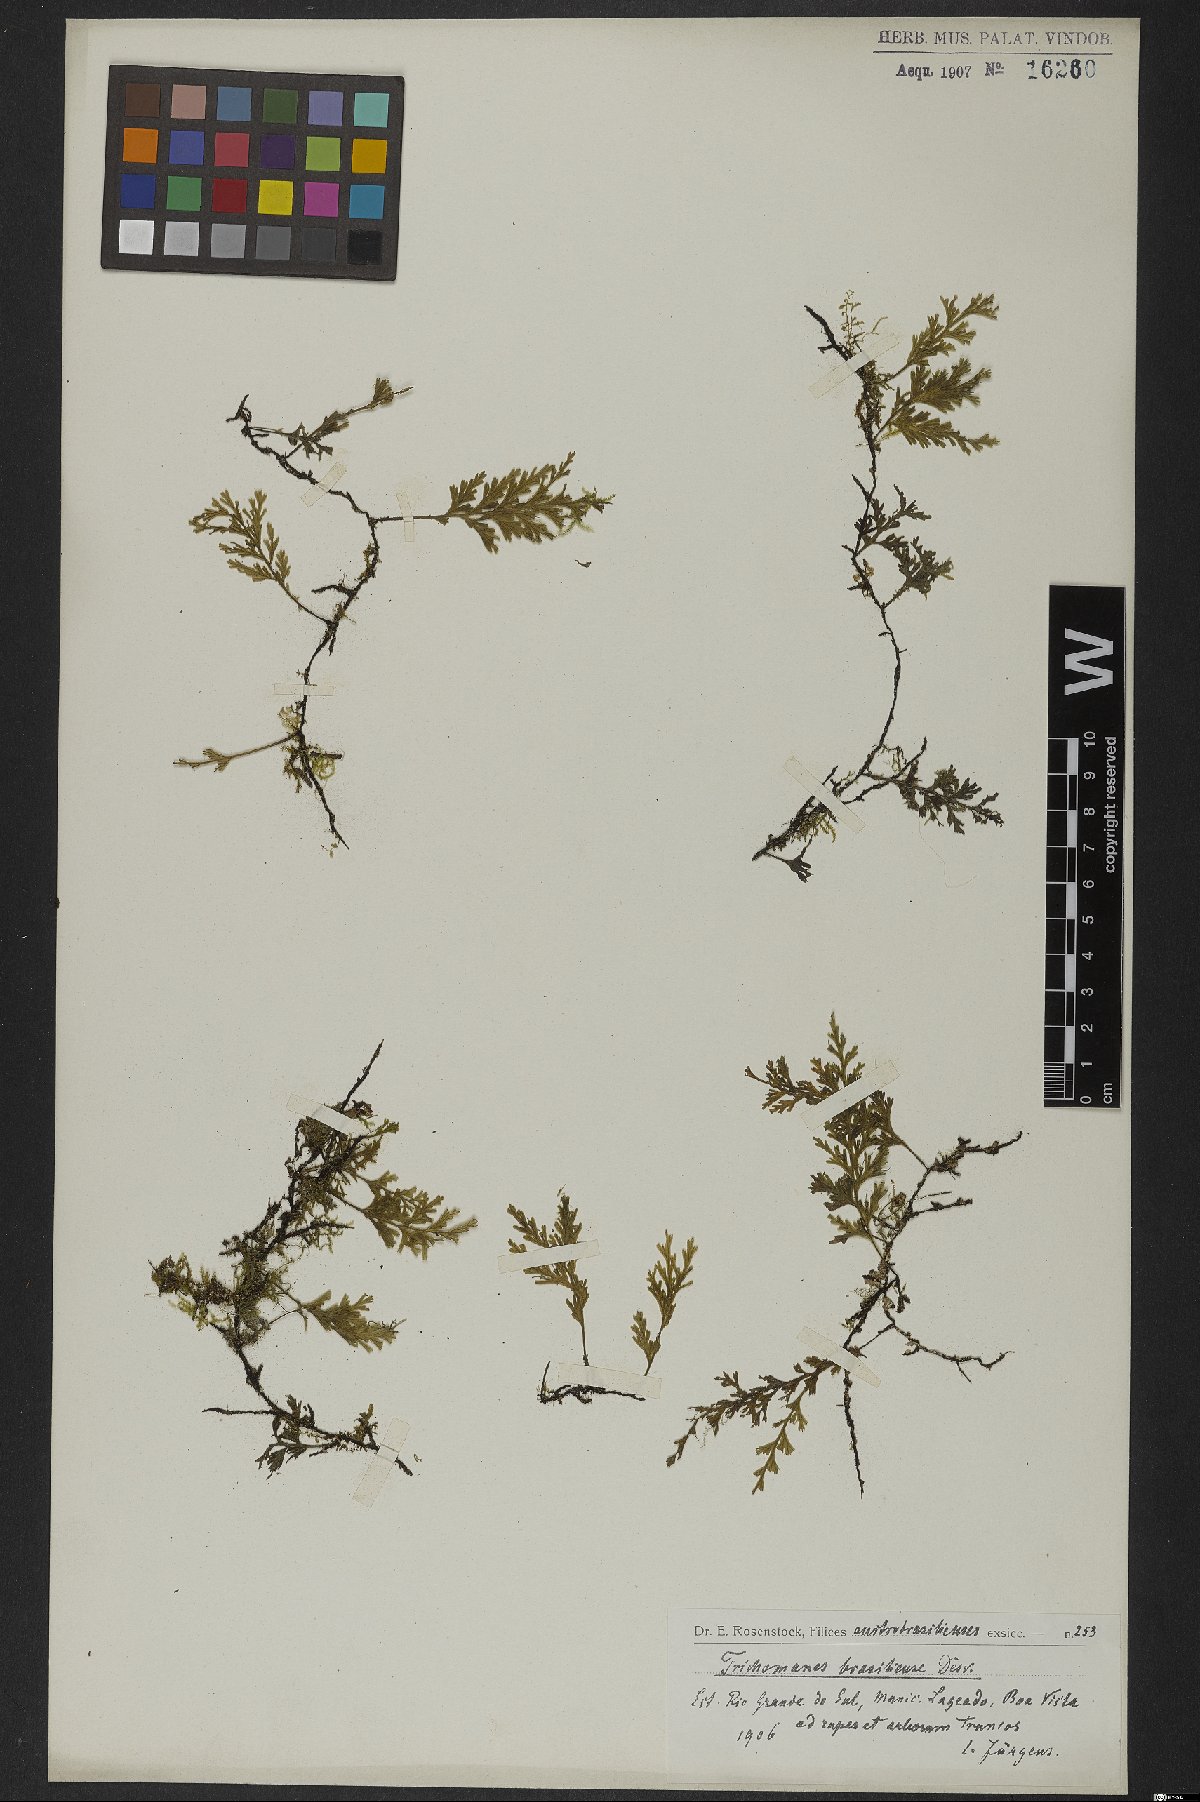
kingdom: Plantae
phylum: Tracheophyta
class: Polypodiopsida
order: Hymenophyllales
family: Hymenophyllaceae
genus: Polyphlebium
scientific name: Polyphlebium pyxidiferum
